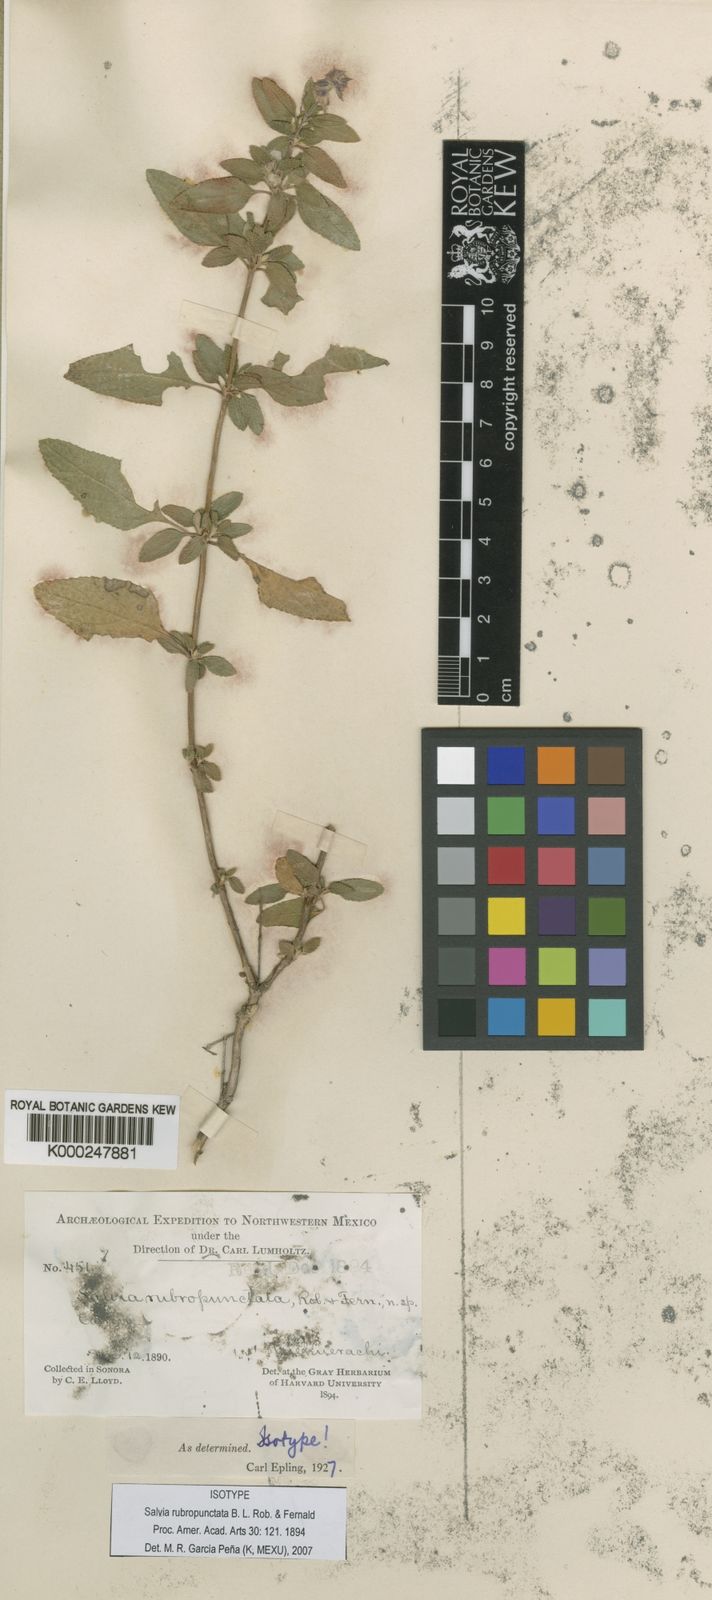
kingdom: Plantae
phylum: Tracheophyta
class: Magnoliopsida
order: Lamiales
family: Lamiaceae
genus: Salvia
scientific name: Salvia rubropunctata
